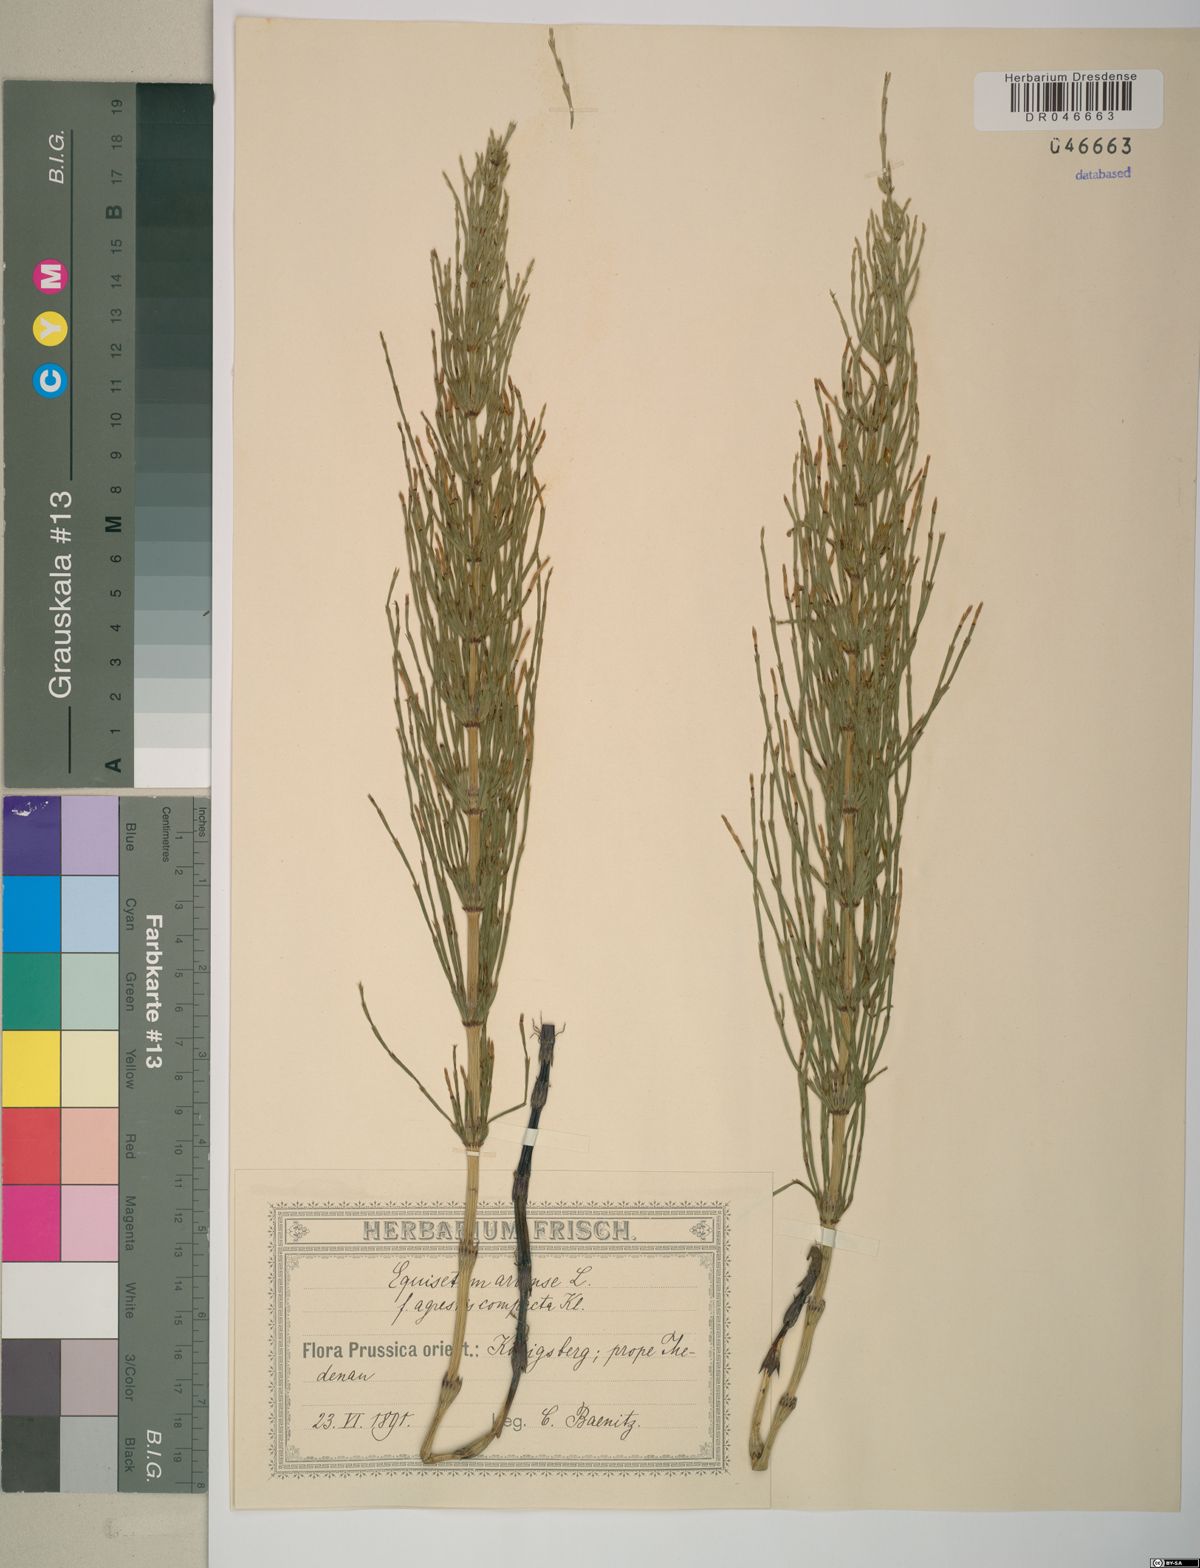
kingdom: Plantae
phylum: Tracheophyta
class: Polypodiopsida
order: Equisetales
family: Equisetaceae
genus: Equisetum
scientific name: Equisetum arvense
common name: Field horsetail
